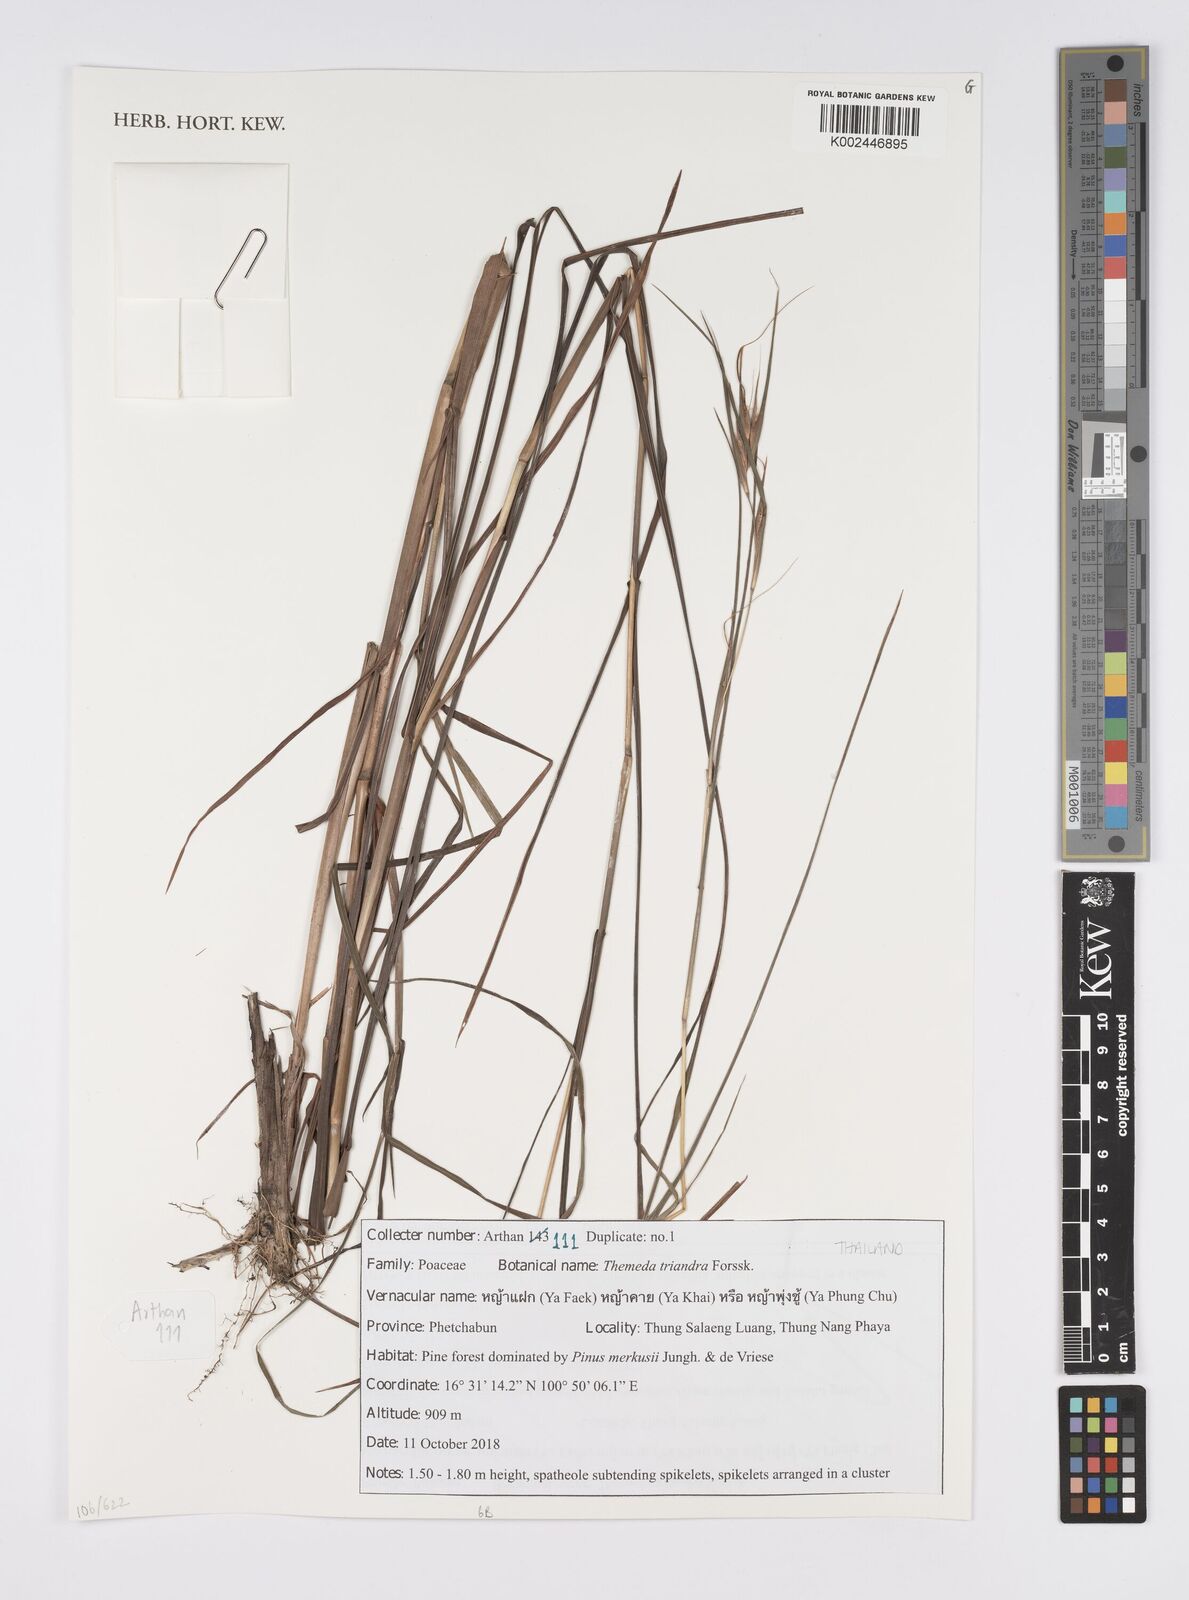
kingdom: Plantae
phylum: Tracheophyta
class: Liliopsida
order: Poales
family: Poaceae
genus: Themeda
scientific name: Themeda triandra
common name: Kangaroo grass
